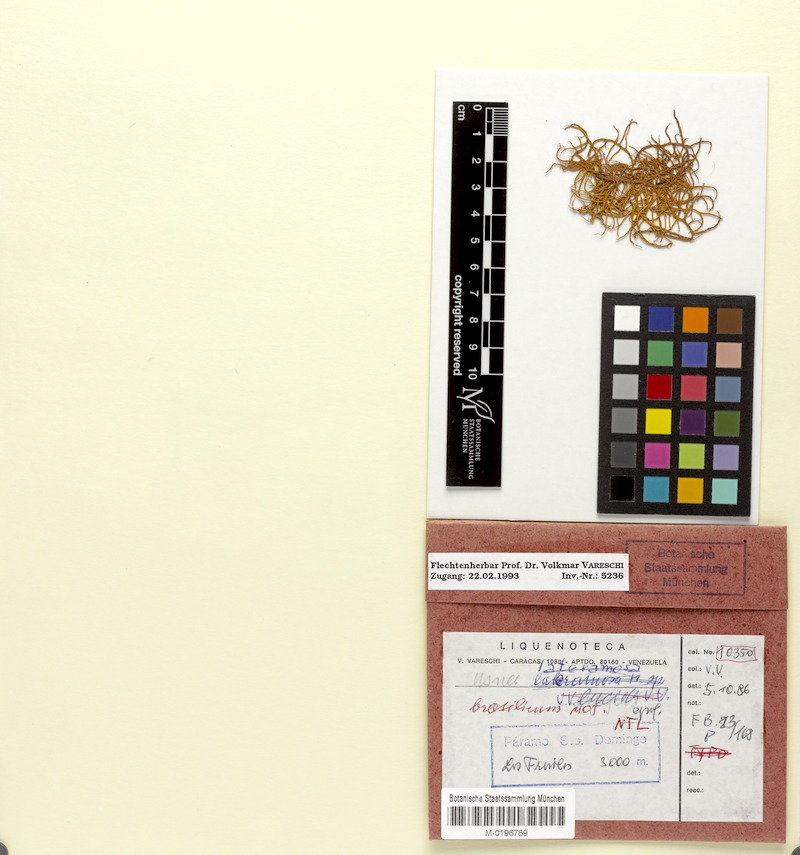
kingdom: Fungi
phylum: Ascomycota
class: Lecanoromycetes
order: Lecanorales
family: Parmeliaceae
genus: Usnea
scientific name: Usnea cornuta
